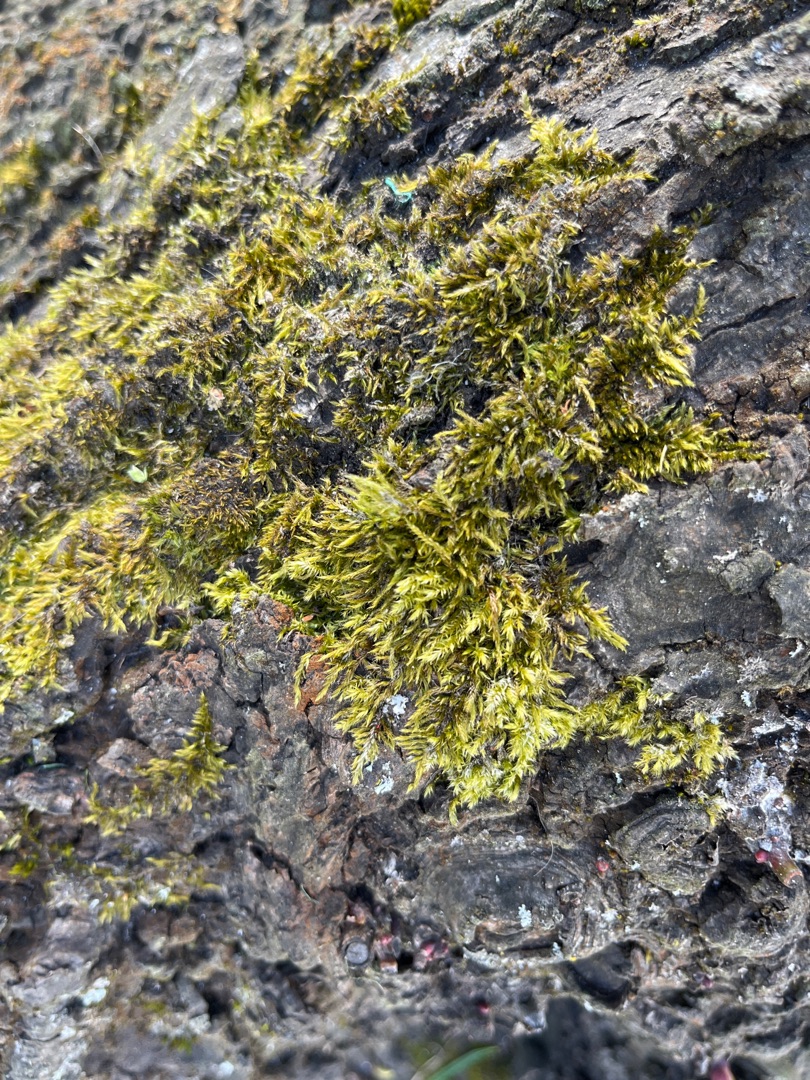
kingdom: Plantae
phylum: Bryophyta
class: Bryopsida
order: Hypnales
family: Hypnaceae
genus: Hypnum
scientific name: Hypnum
